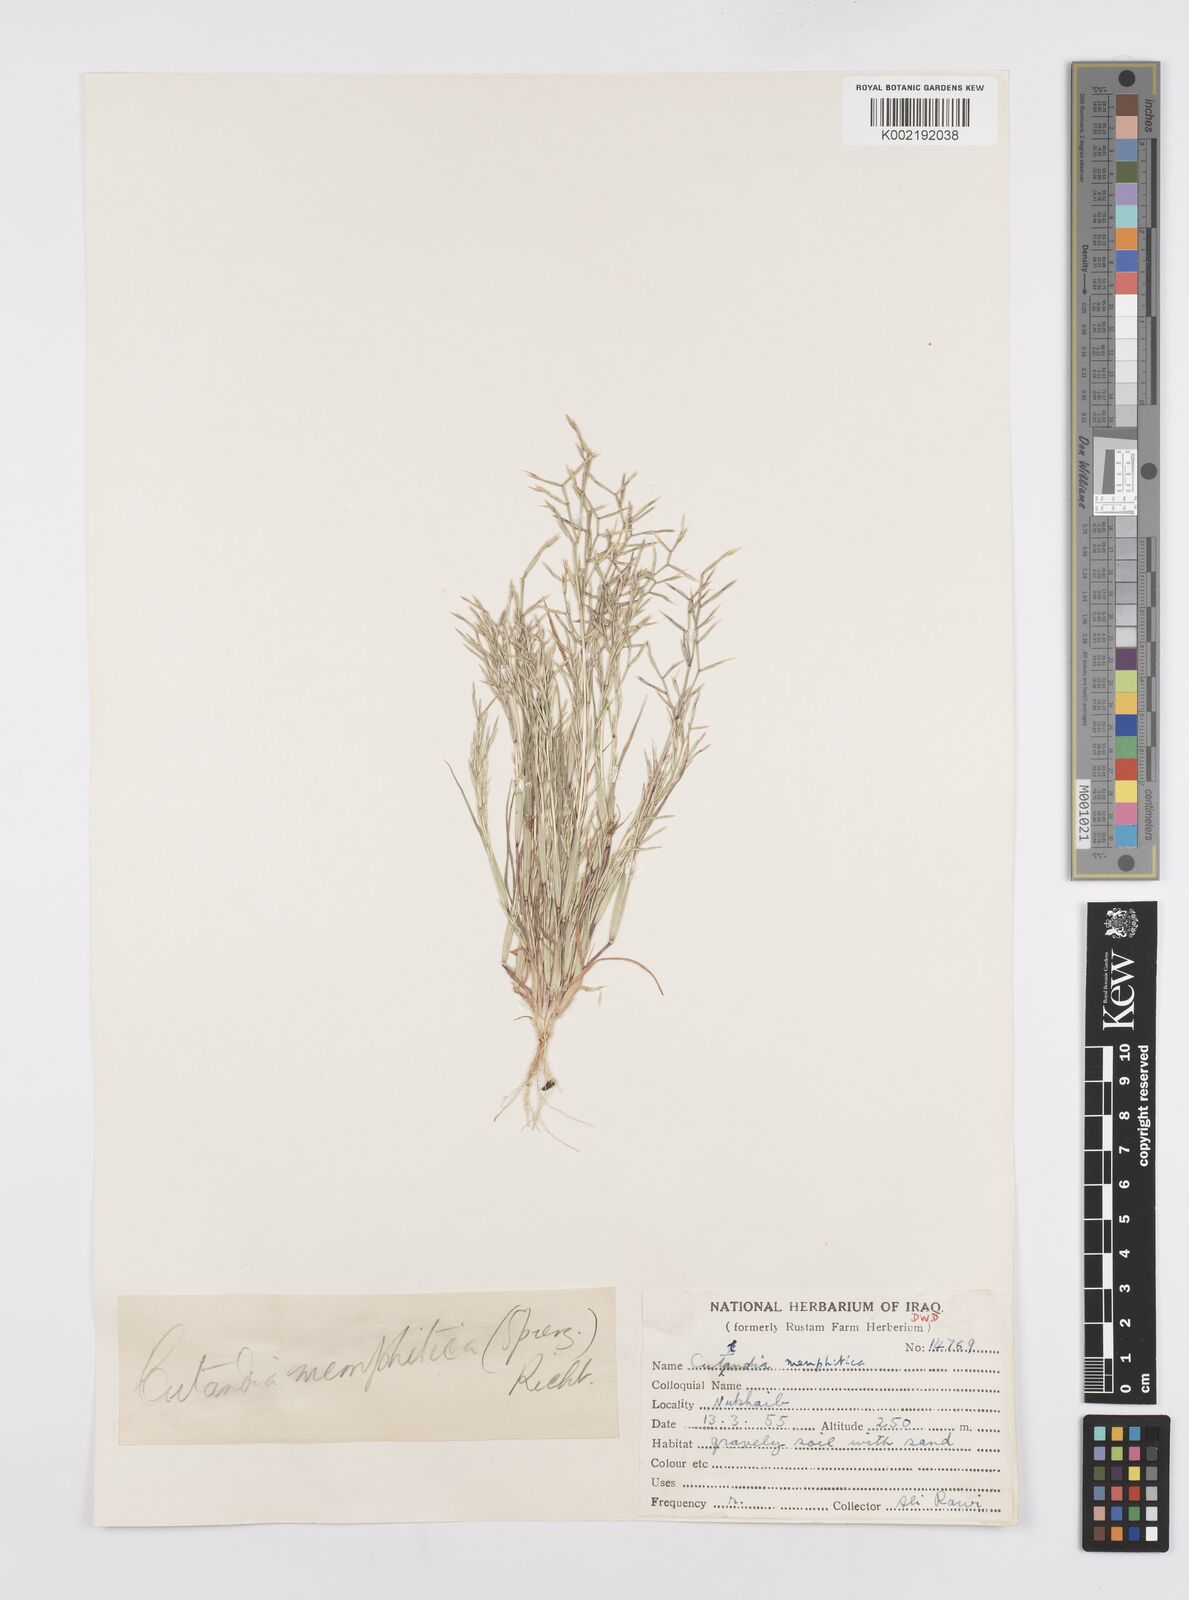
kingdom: Plantae
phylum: Tracheophyta
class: Liliopsida
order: Poales
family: Poaceae
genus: Cutandia
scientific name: Cutandia memphitica
